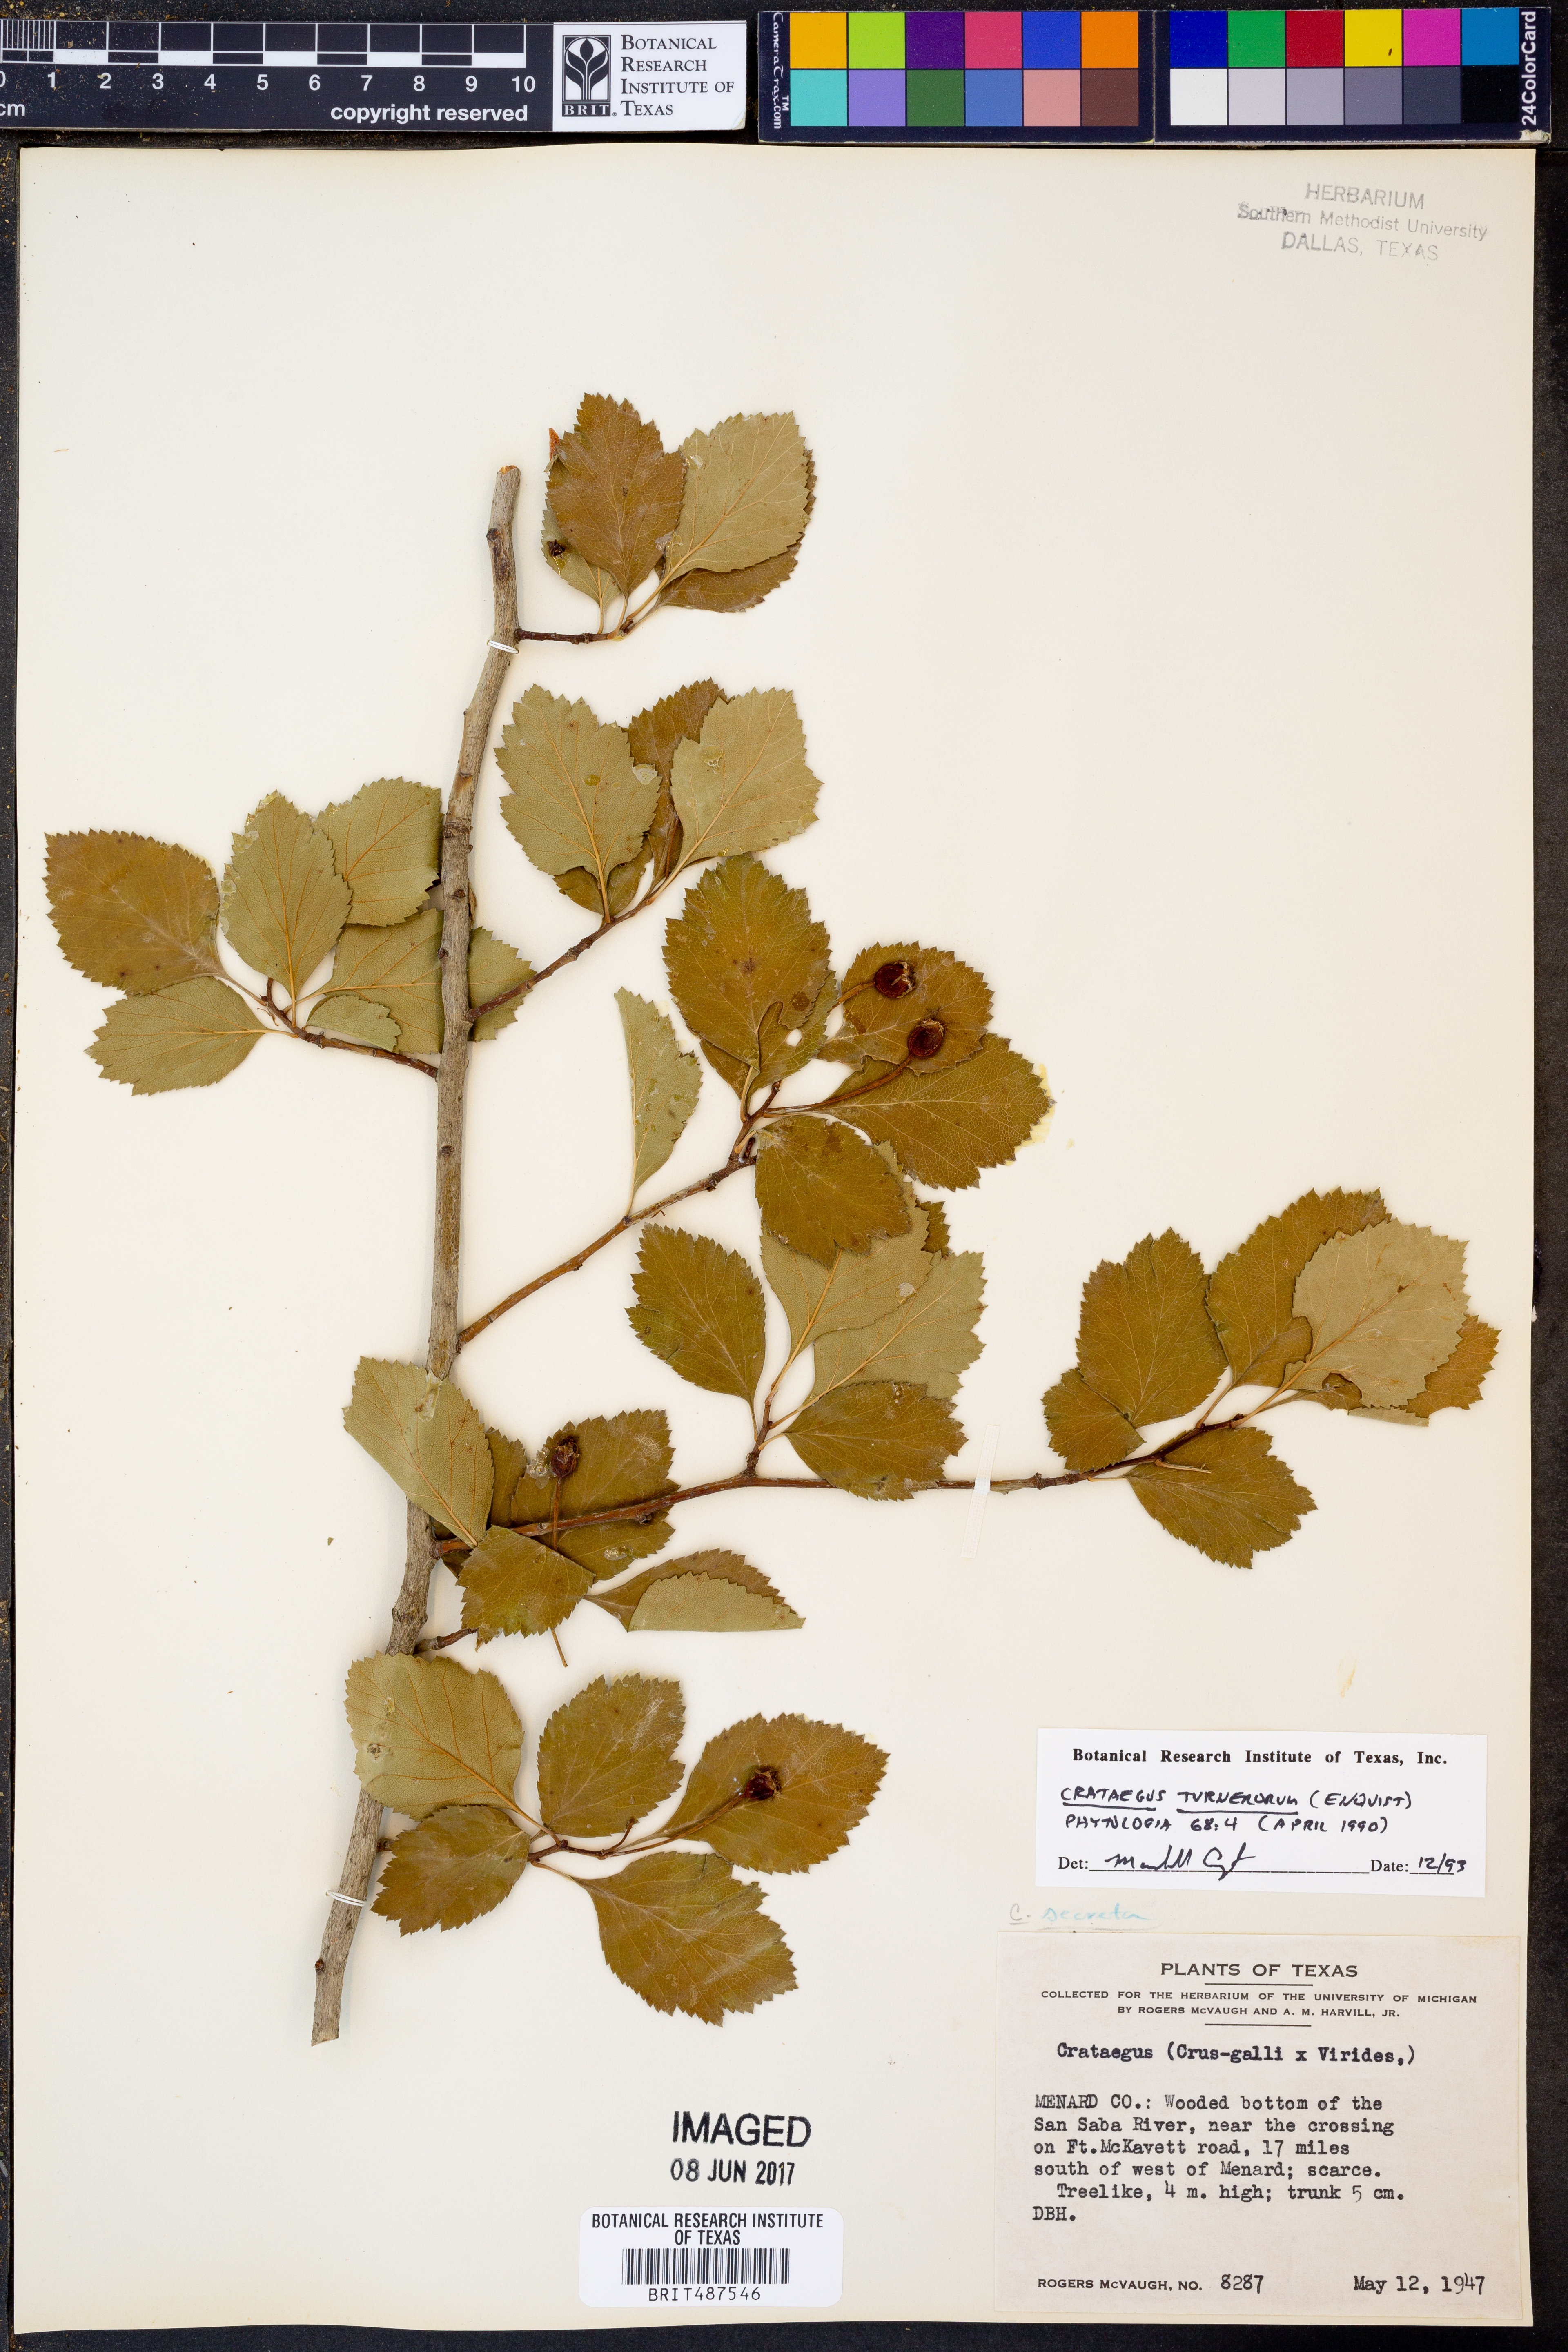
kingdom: Plantae
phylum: Tracheophyta
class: Magnoliopsida
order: Rosales
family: Rosaceae
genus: Crataegus
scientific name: Crataegus turnerorum
